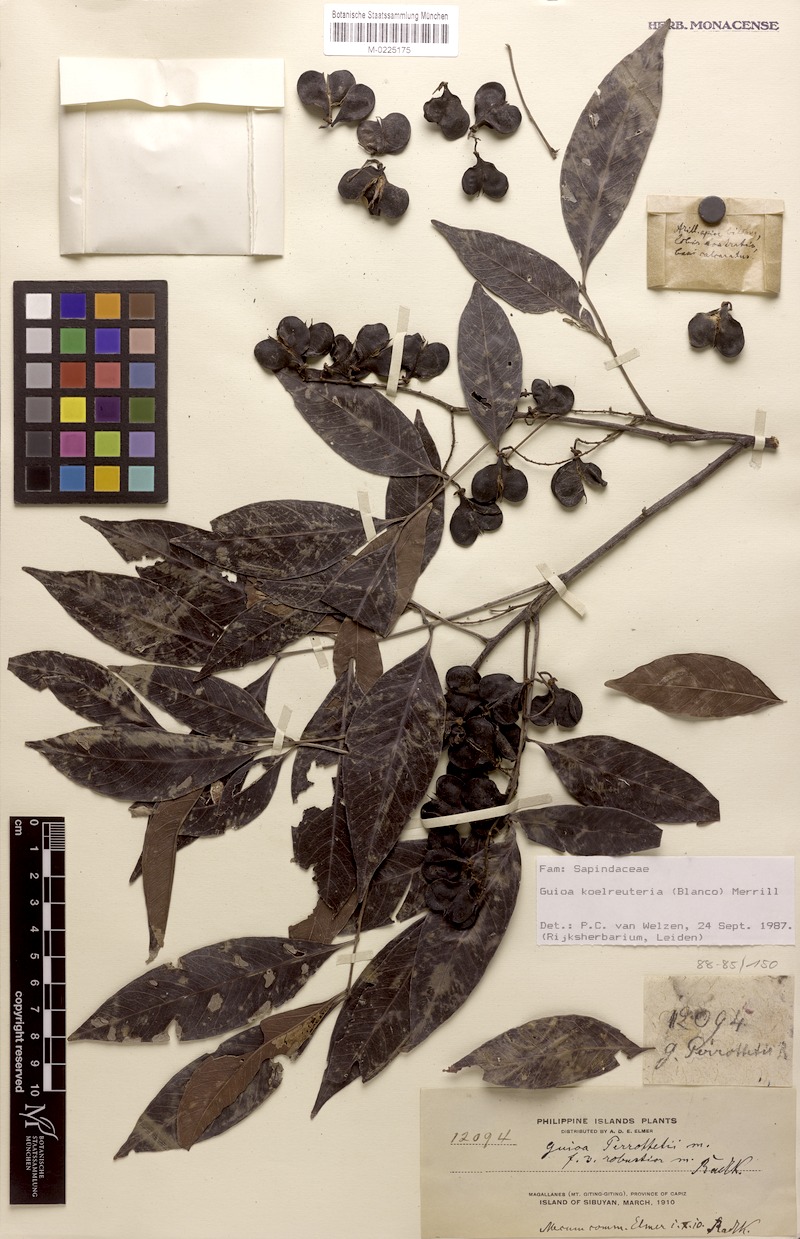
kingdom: Plantae
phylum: Tracheophyta
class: Magnoliopsida
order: Sapindales
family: Sapindaceae
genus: Guioa
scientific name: Guioa koelreuteria
